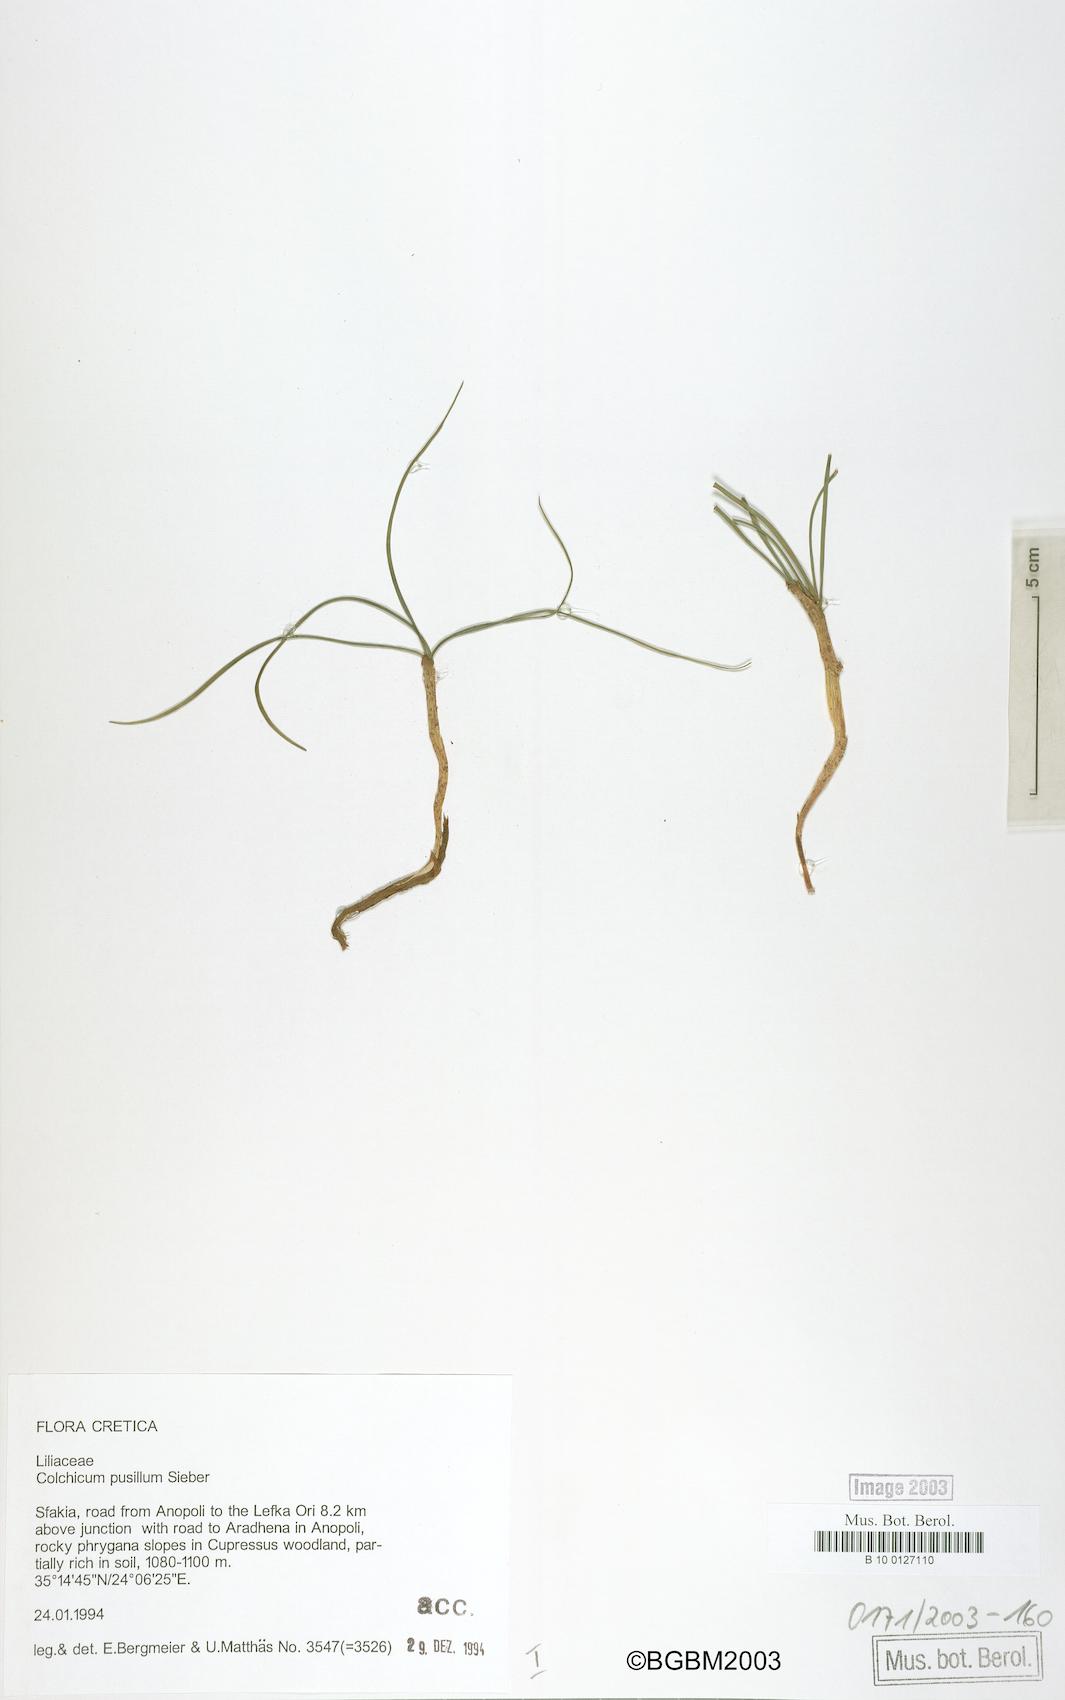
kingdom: Plantae
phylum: Tracheophyta
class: Liliopsida
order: Liliales
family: Colchicaceae
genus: Colchicum
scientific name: Colchicum pusillum
